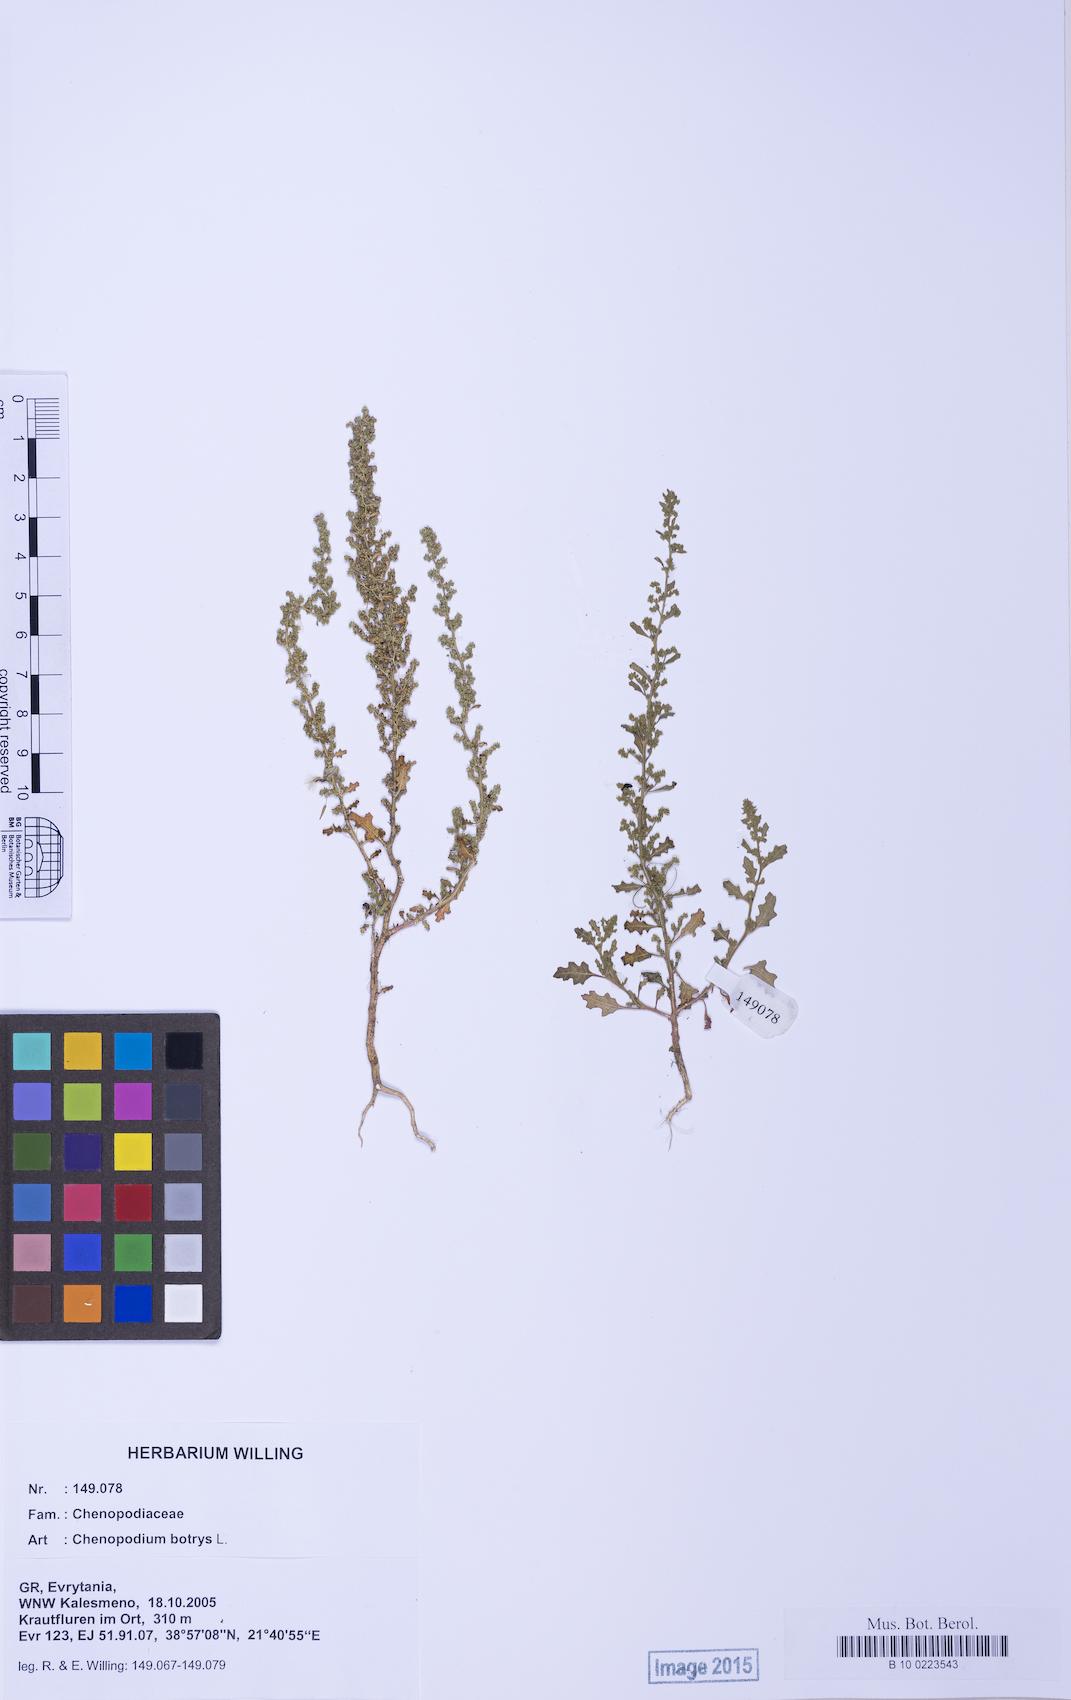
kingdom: Plantae
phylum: Tracheophyta
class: Magnoliopsida
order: Caryophyllales
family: Amaranthaceae
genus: Dysphania
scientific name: Dysphania botrys
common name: Feather-geranium
